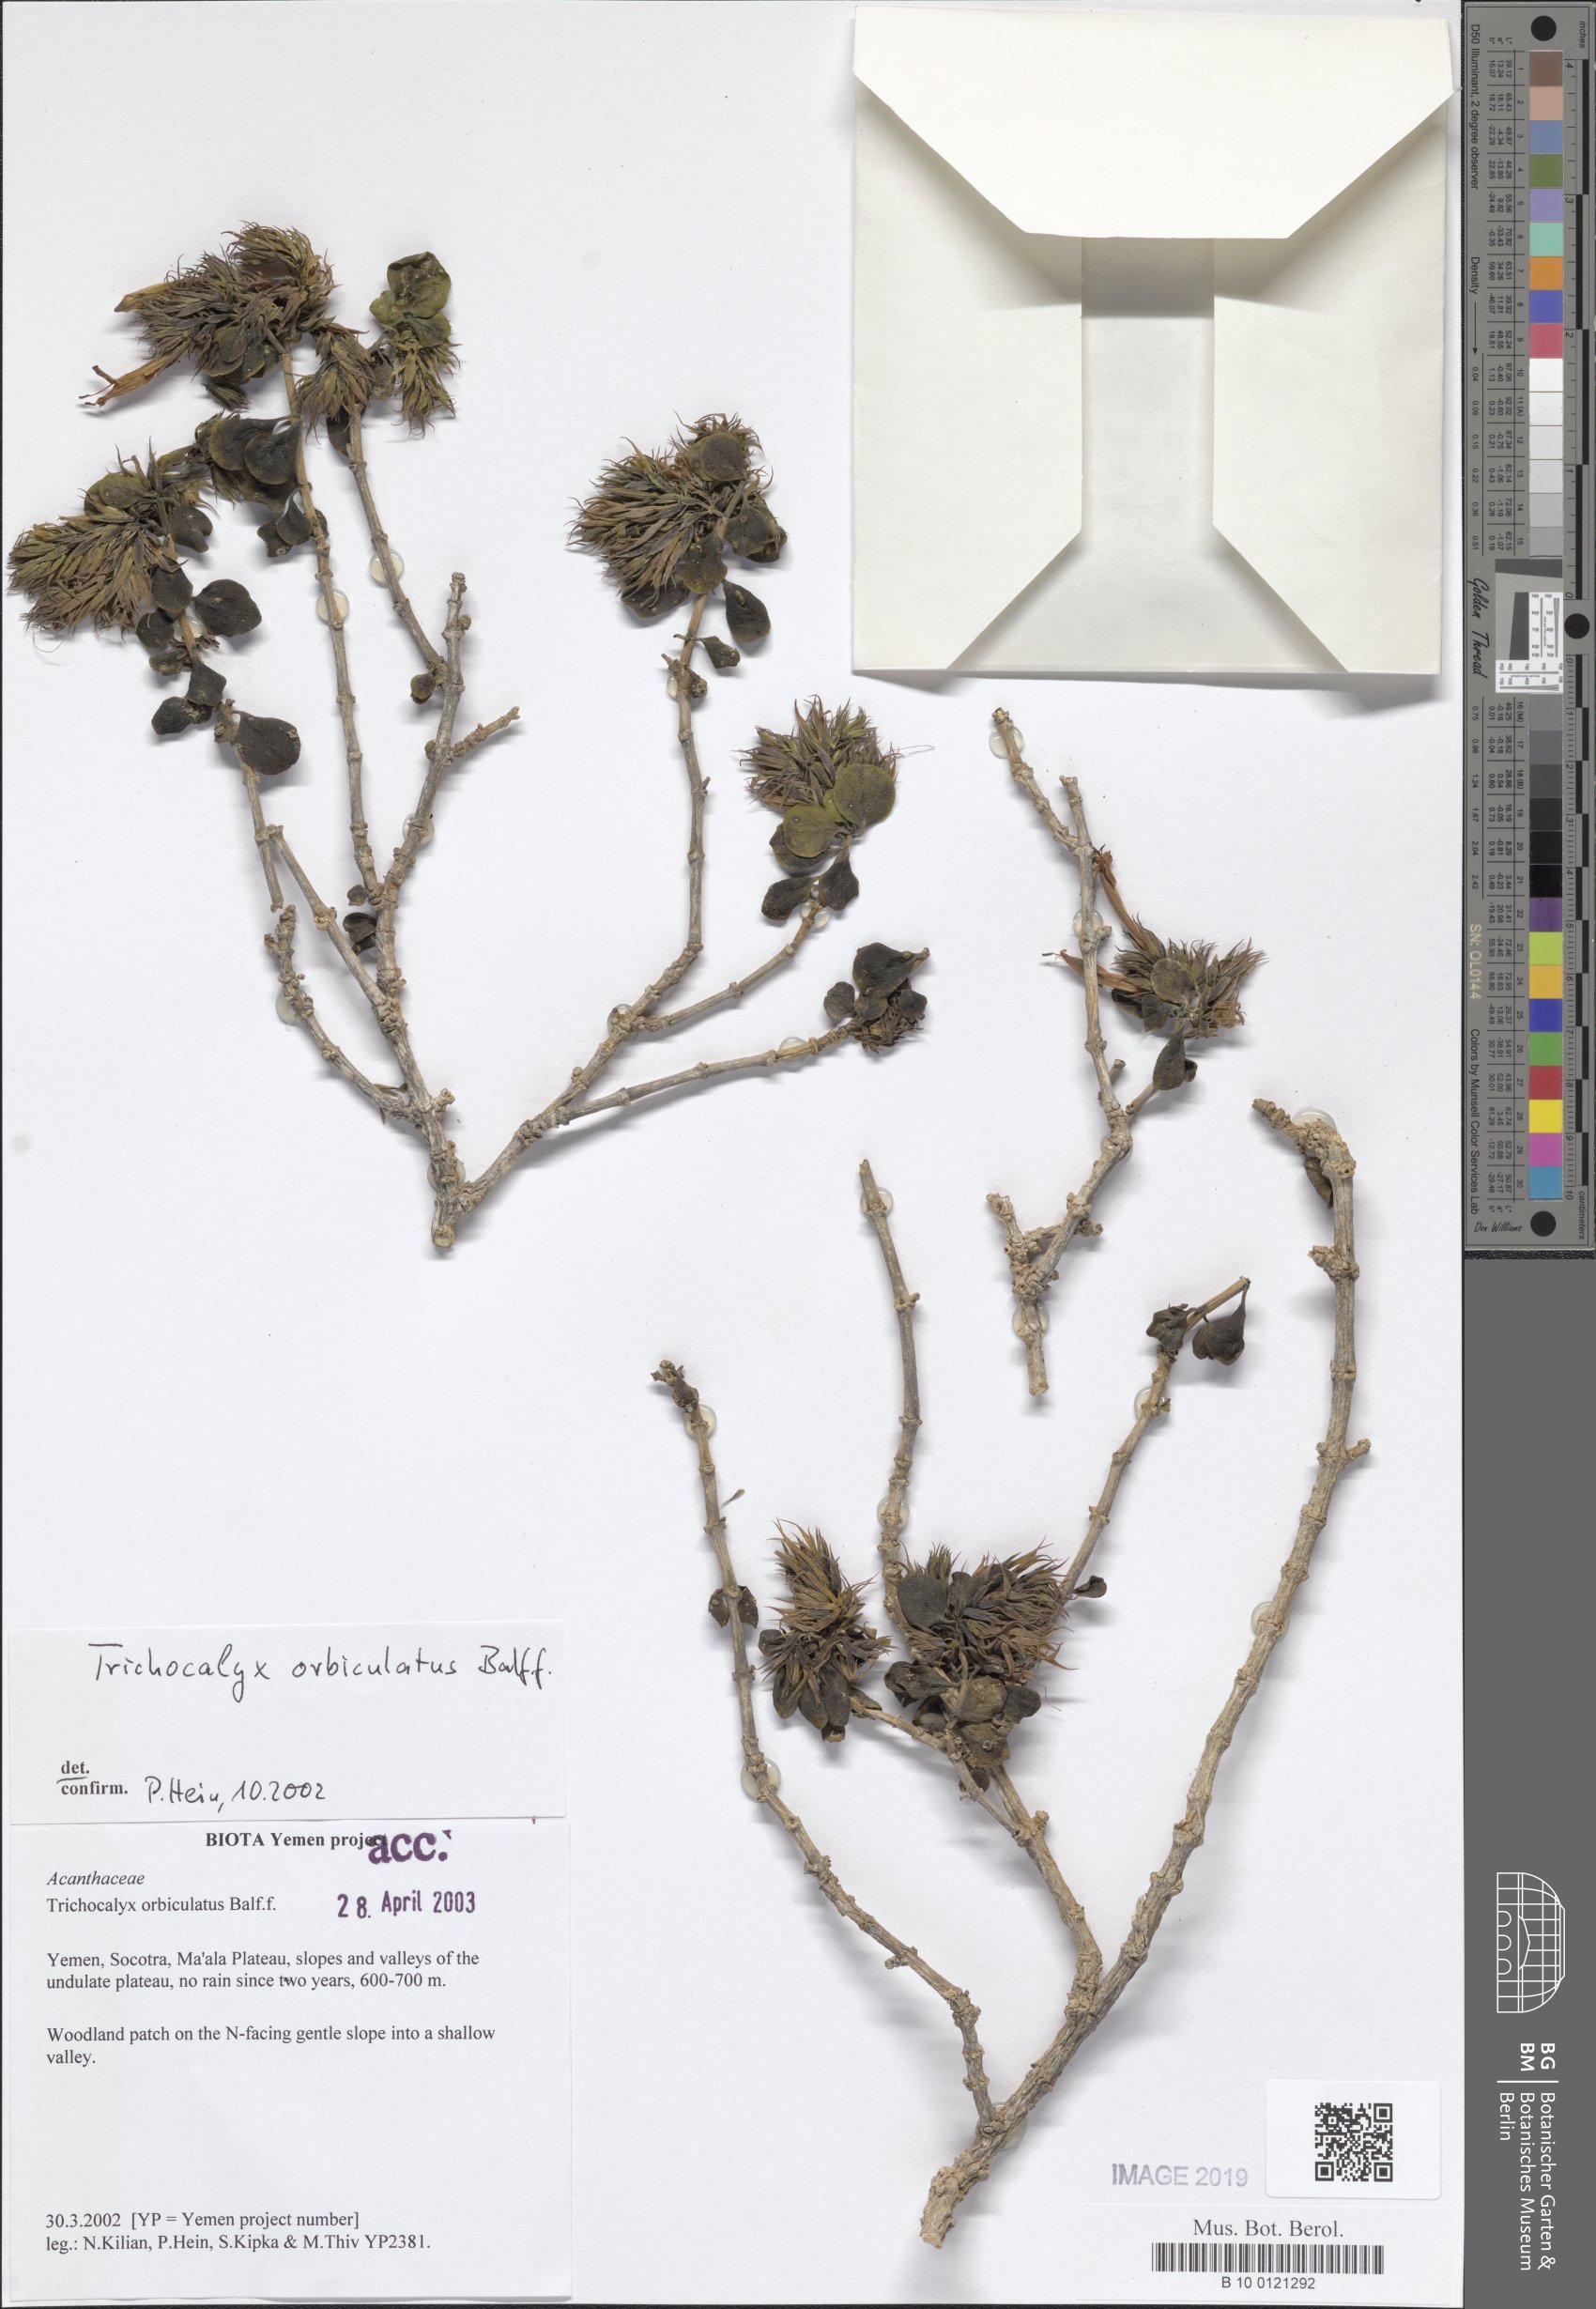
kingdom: Plantae
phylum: Tracheophyta
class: Magnoliopsida
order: Lamiales
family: Acanthaceae
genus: Trichocalyx
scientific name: Trichocalyx orbiculatus
